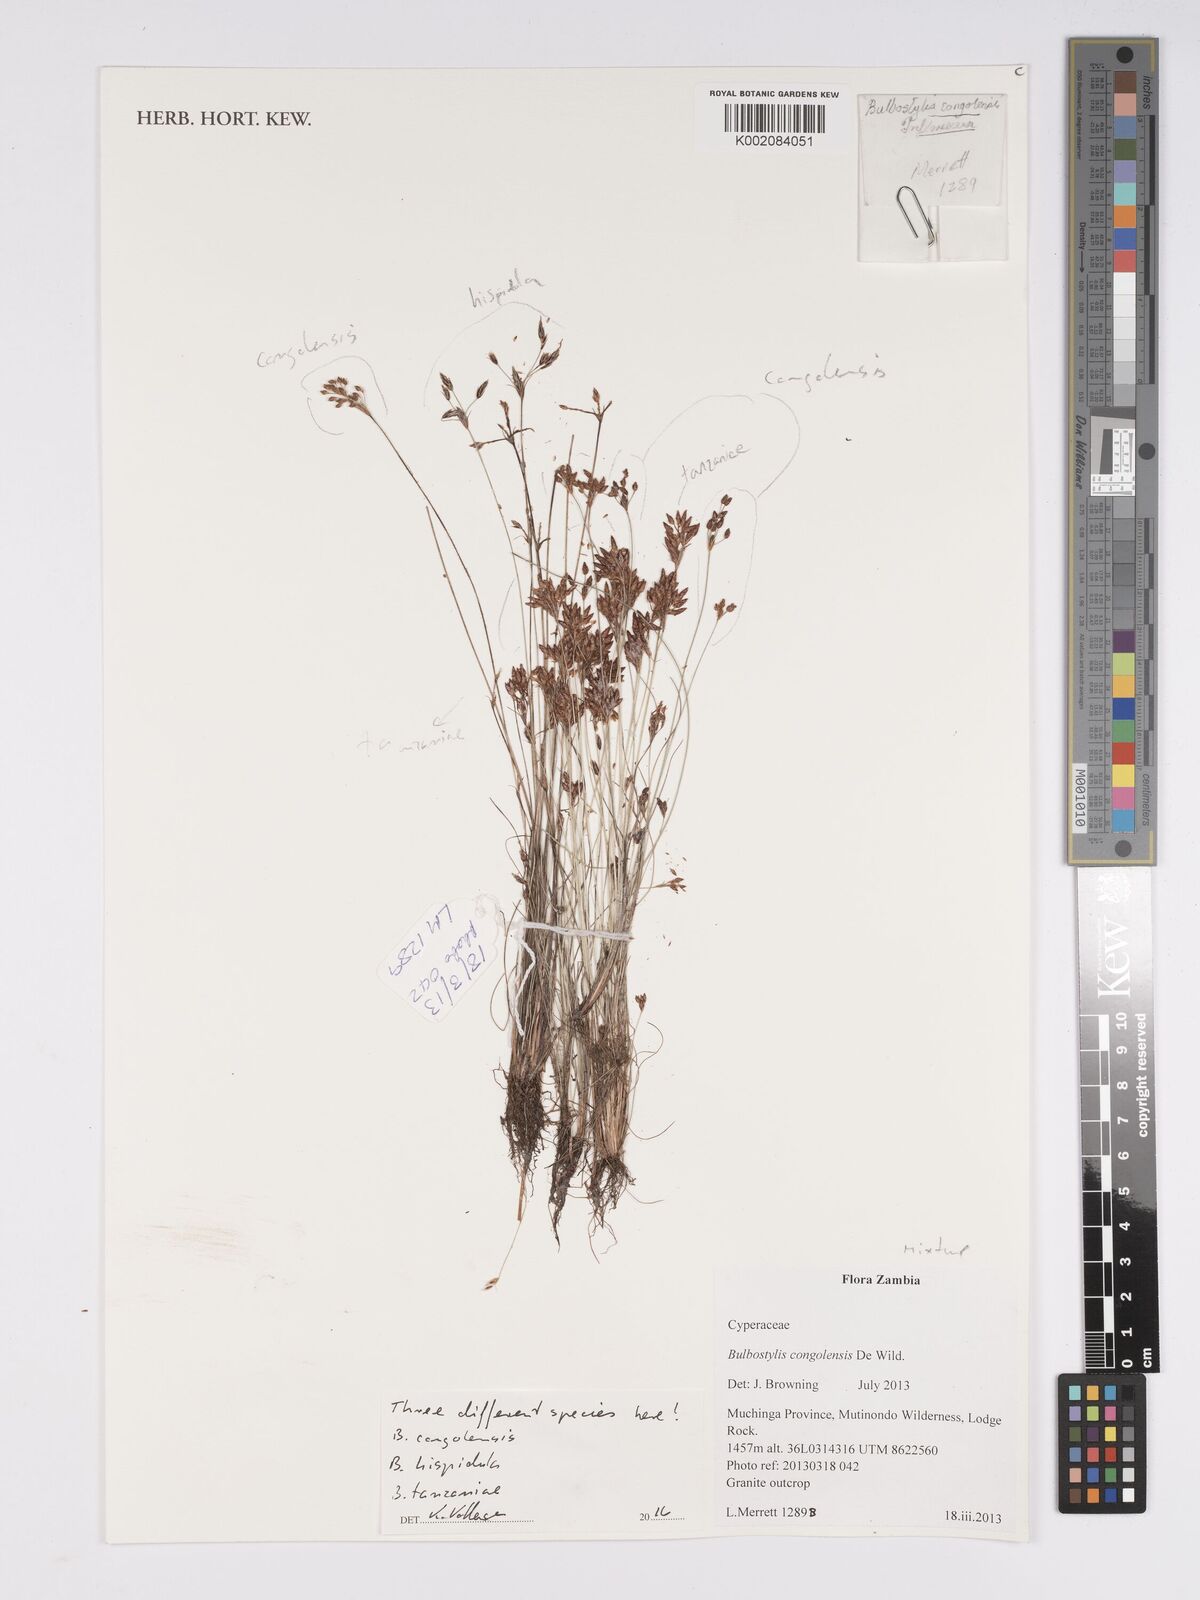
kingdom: Plantae
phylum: Tracheophyta
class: Liliopsida
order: Poales
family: Cyperaceae
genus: Bulbostylis
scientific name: Bulbostylis tanzaniae
